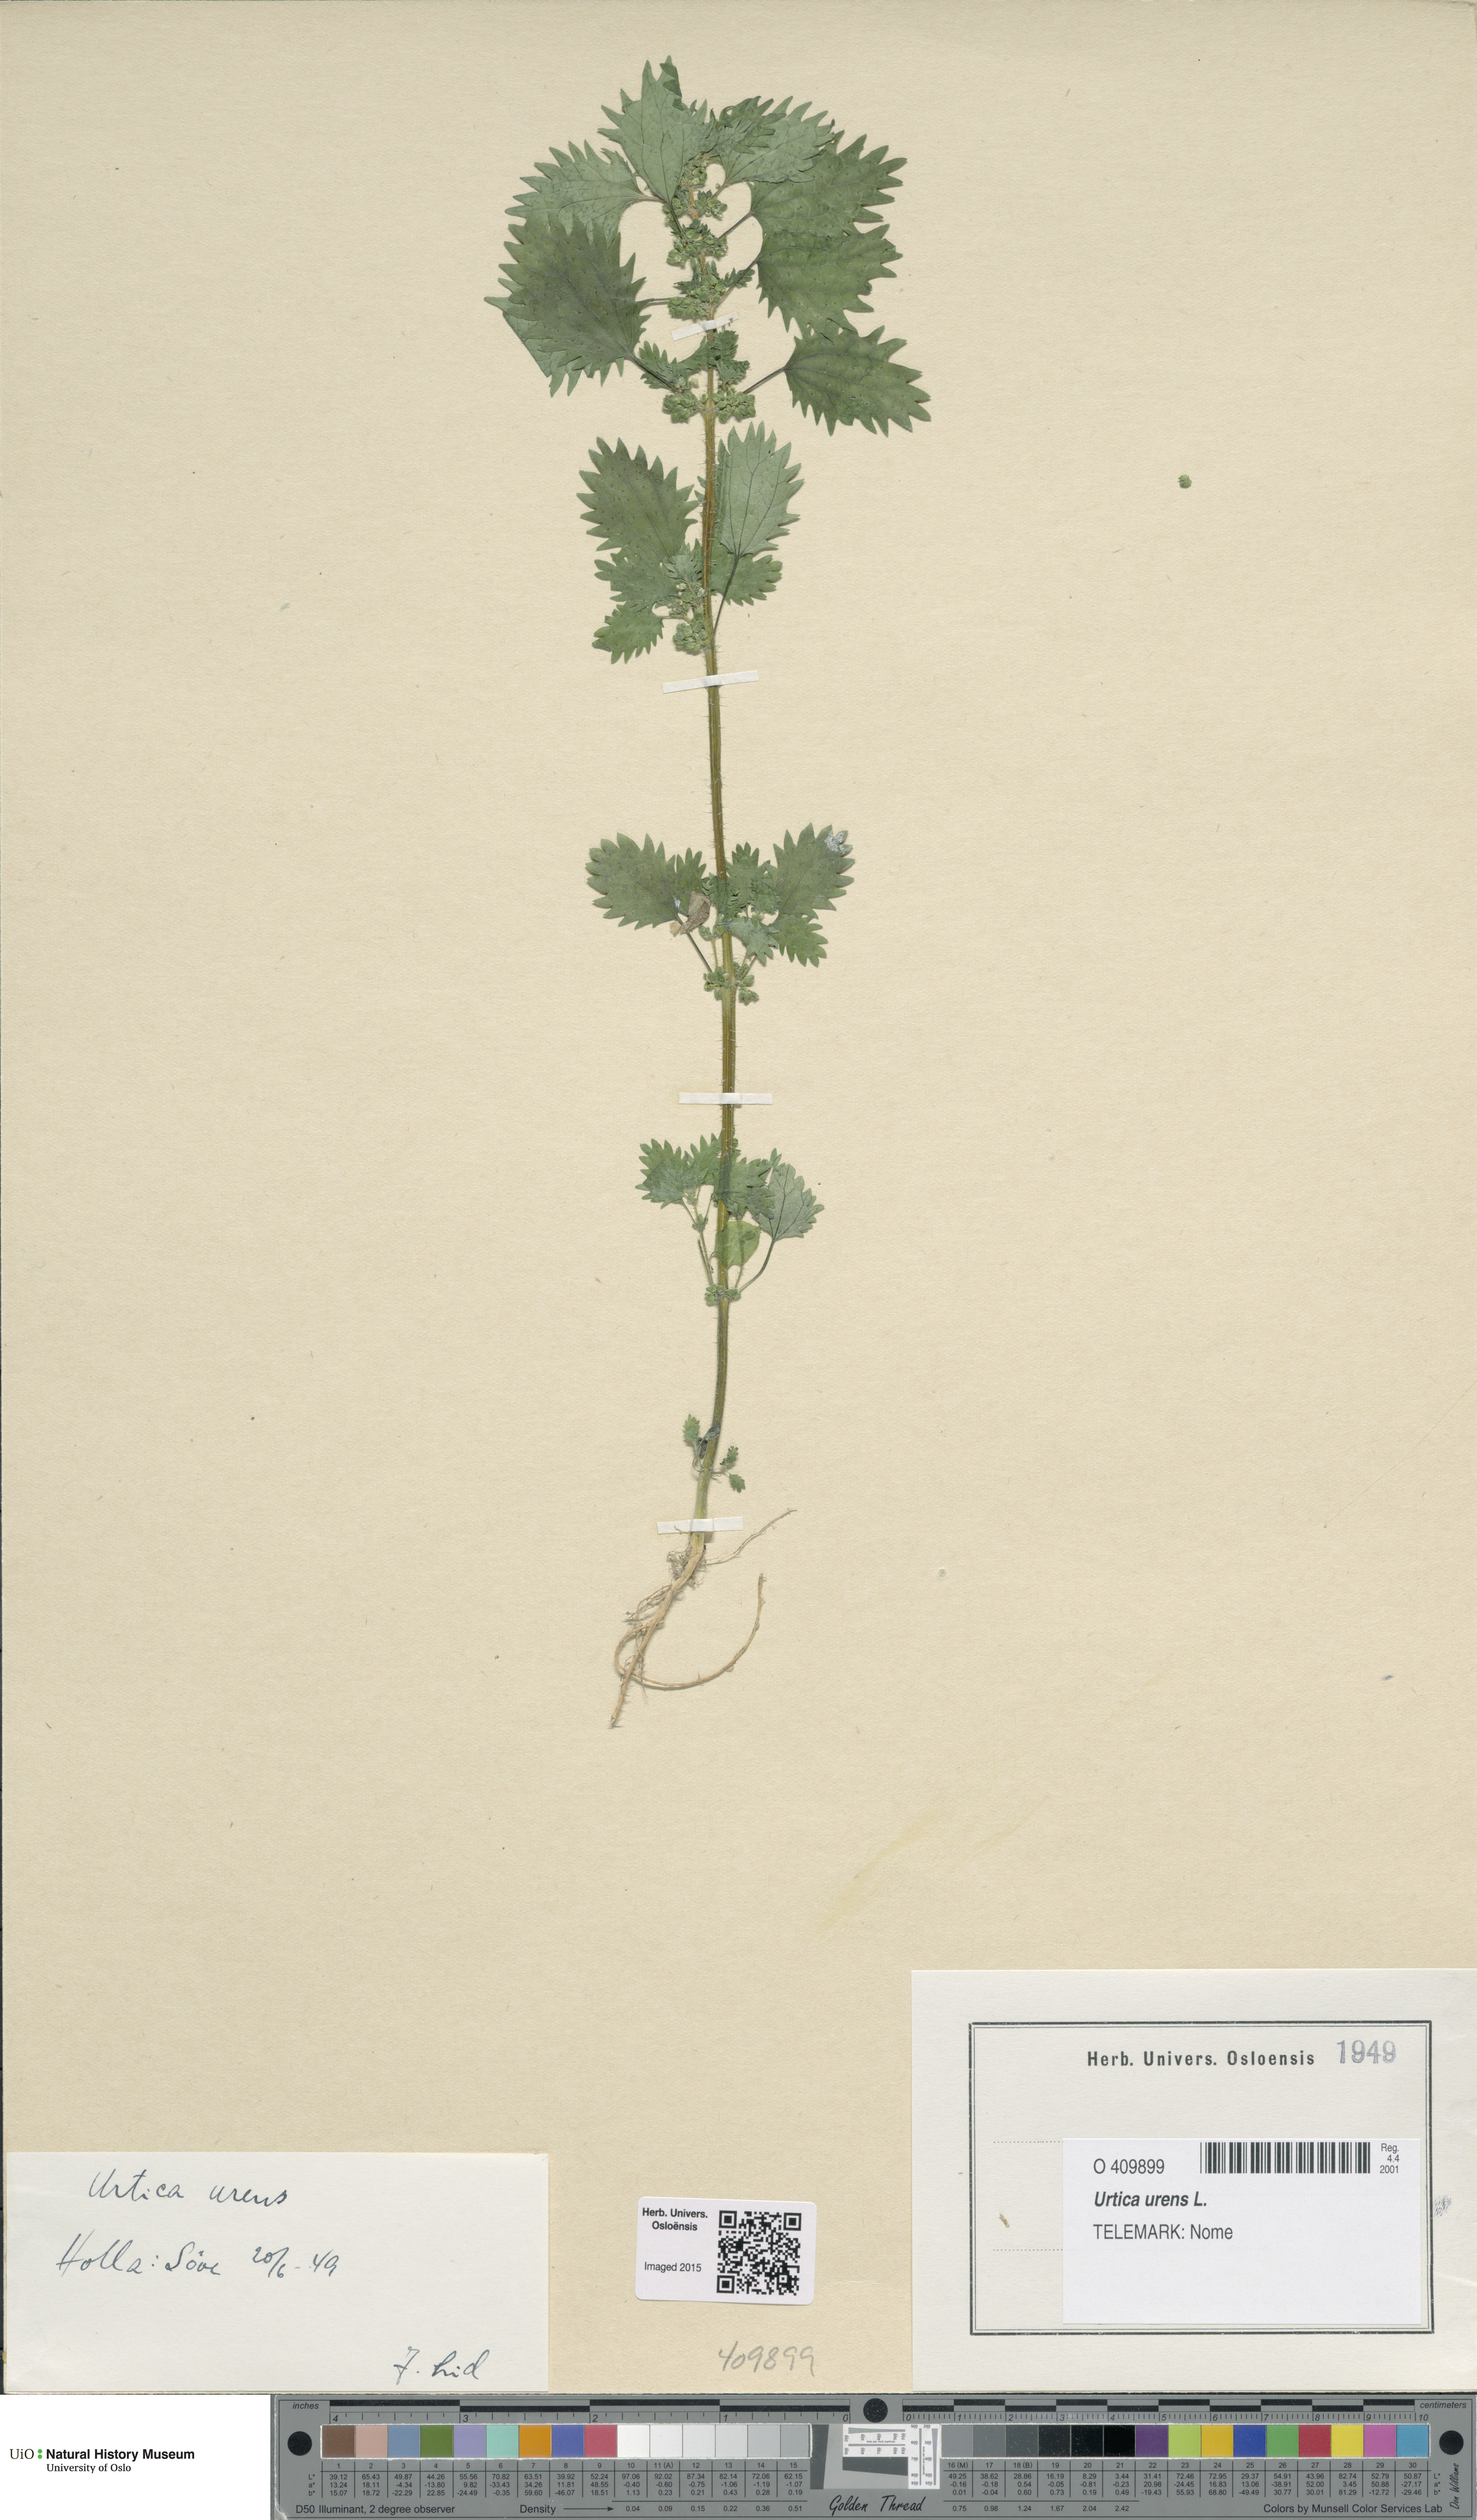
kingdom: Plantae
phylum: Tracheophyta
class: Magnoliopsida
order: Rosales
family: Urticaceae
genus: Urtica
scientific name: Urtica urens
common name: Dwarf nettle
